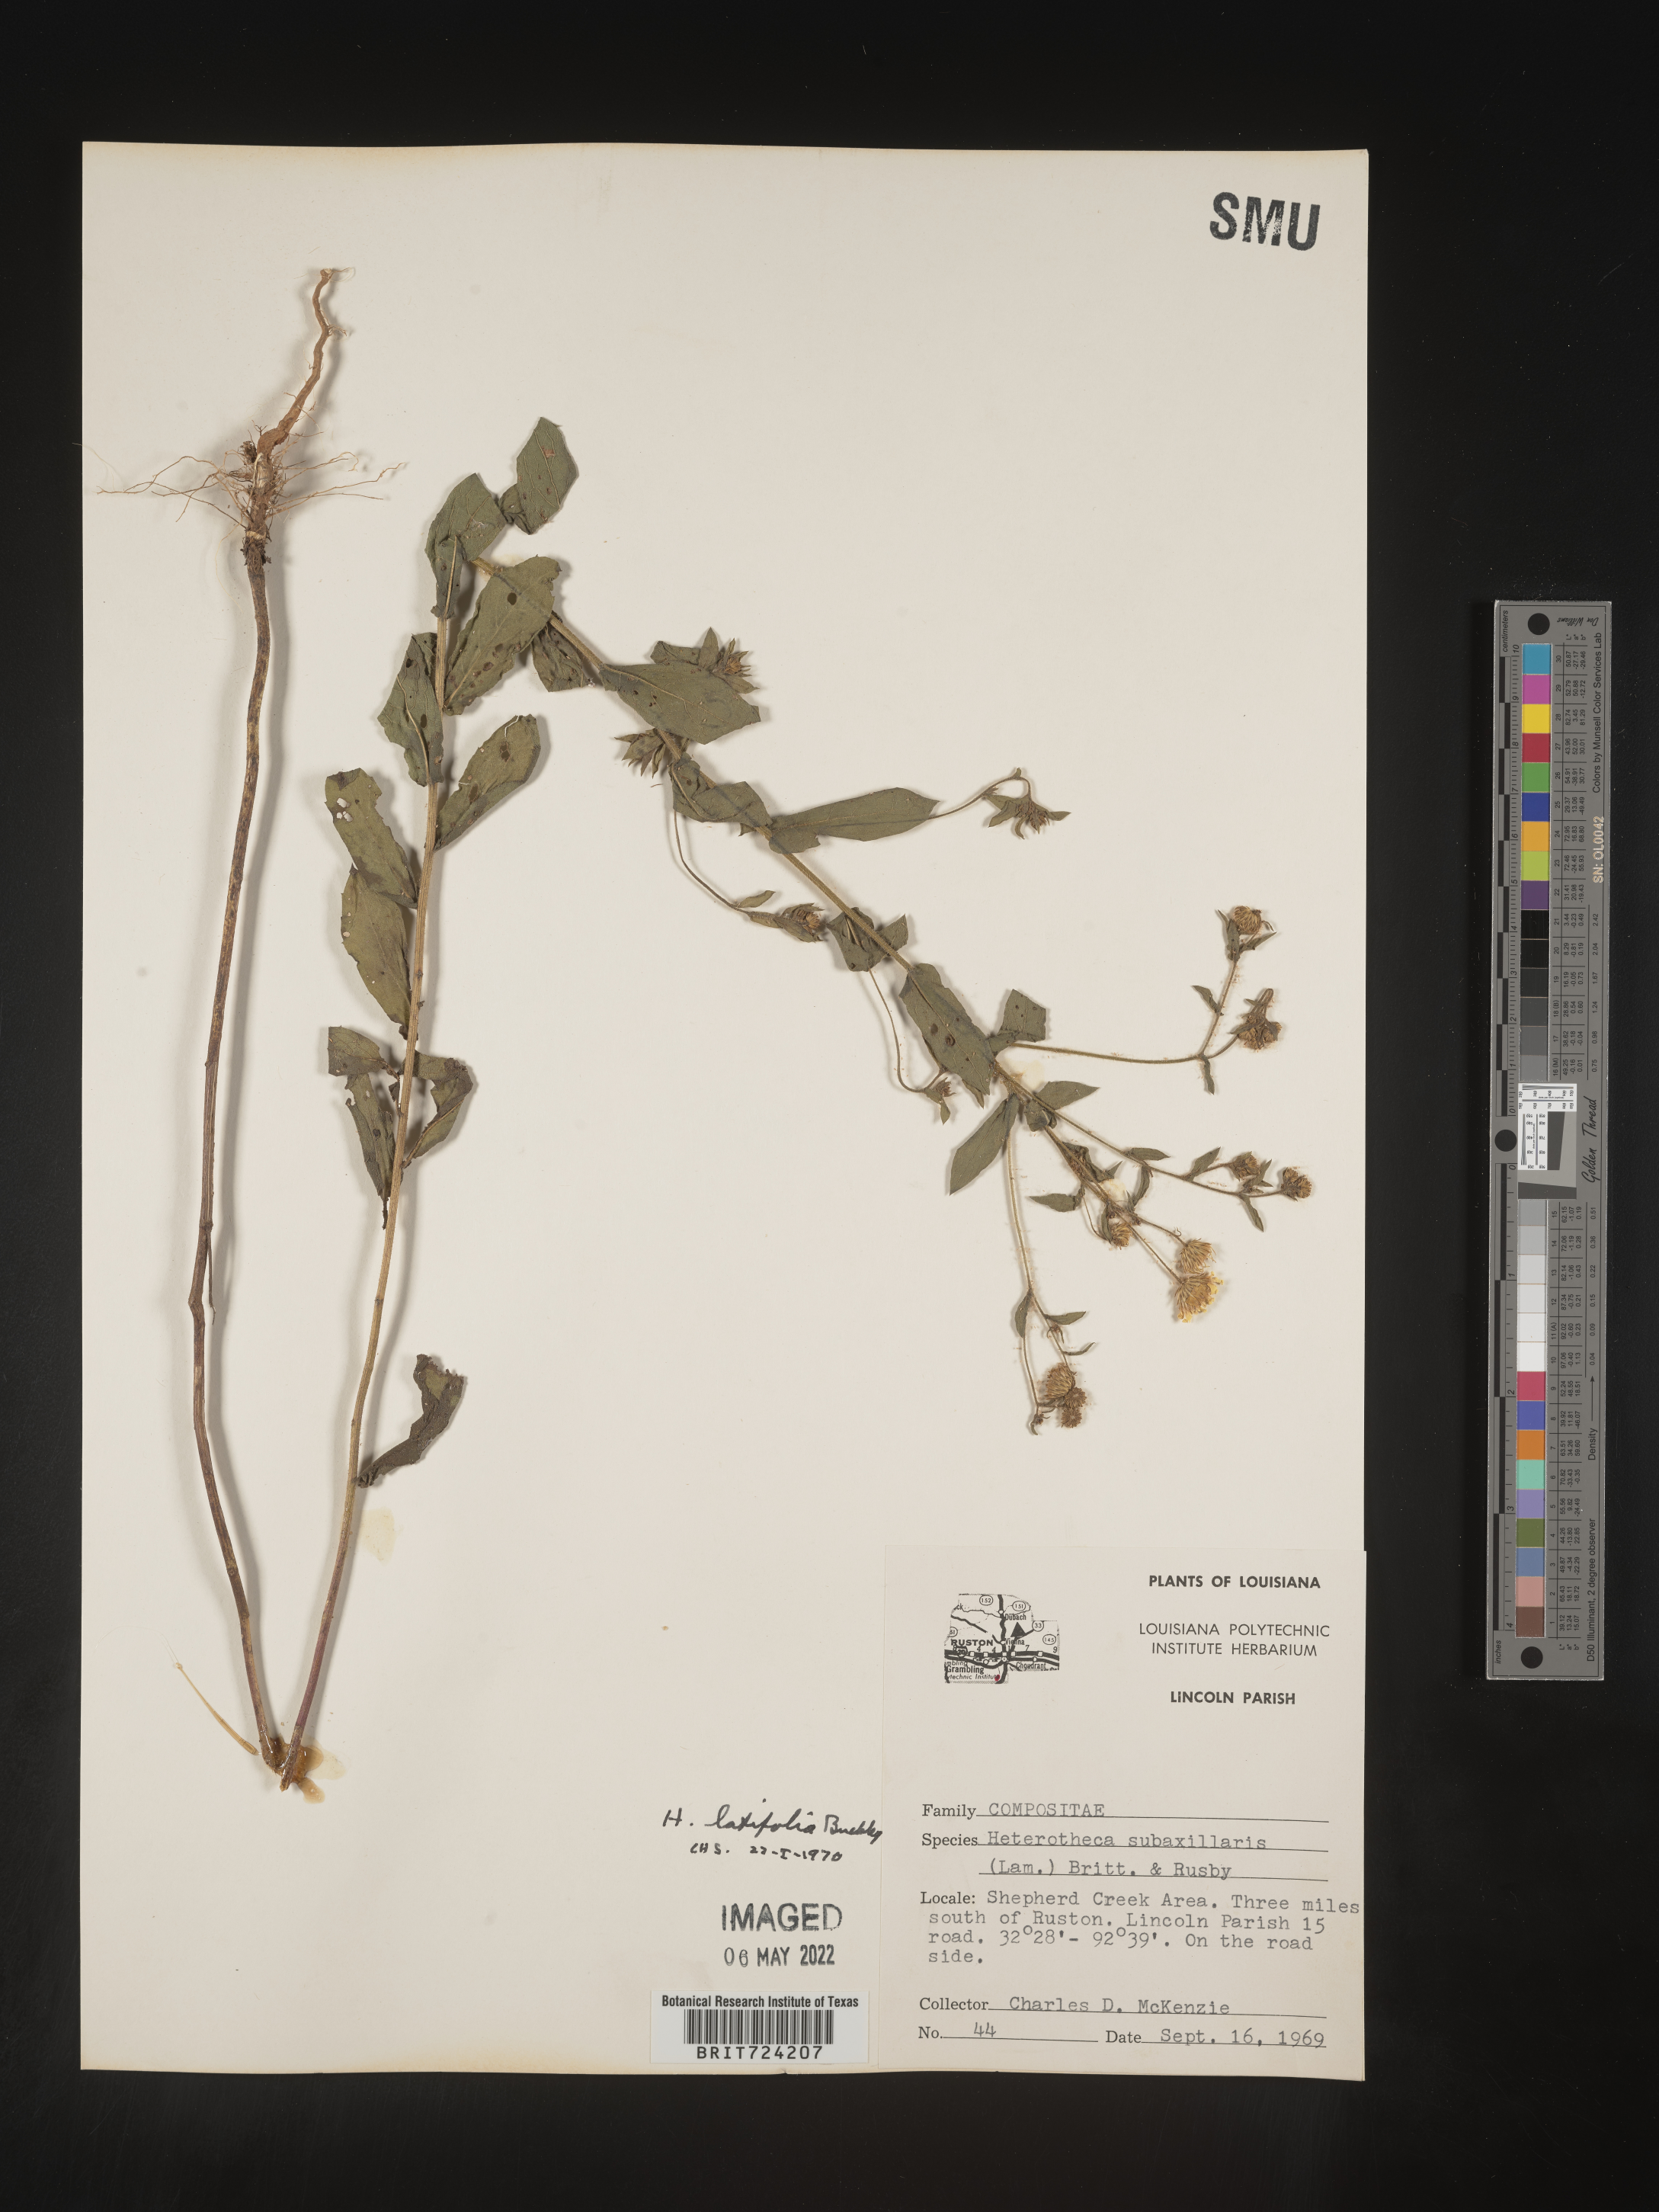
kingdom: Plantae
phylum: Tracheophyta
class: Magnoliopsida
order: Asterales
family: Asteraceae
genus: Heterotheca
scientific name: Heterotheca subaxillaris
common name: Camphorweed
